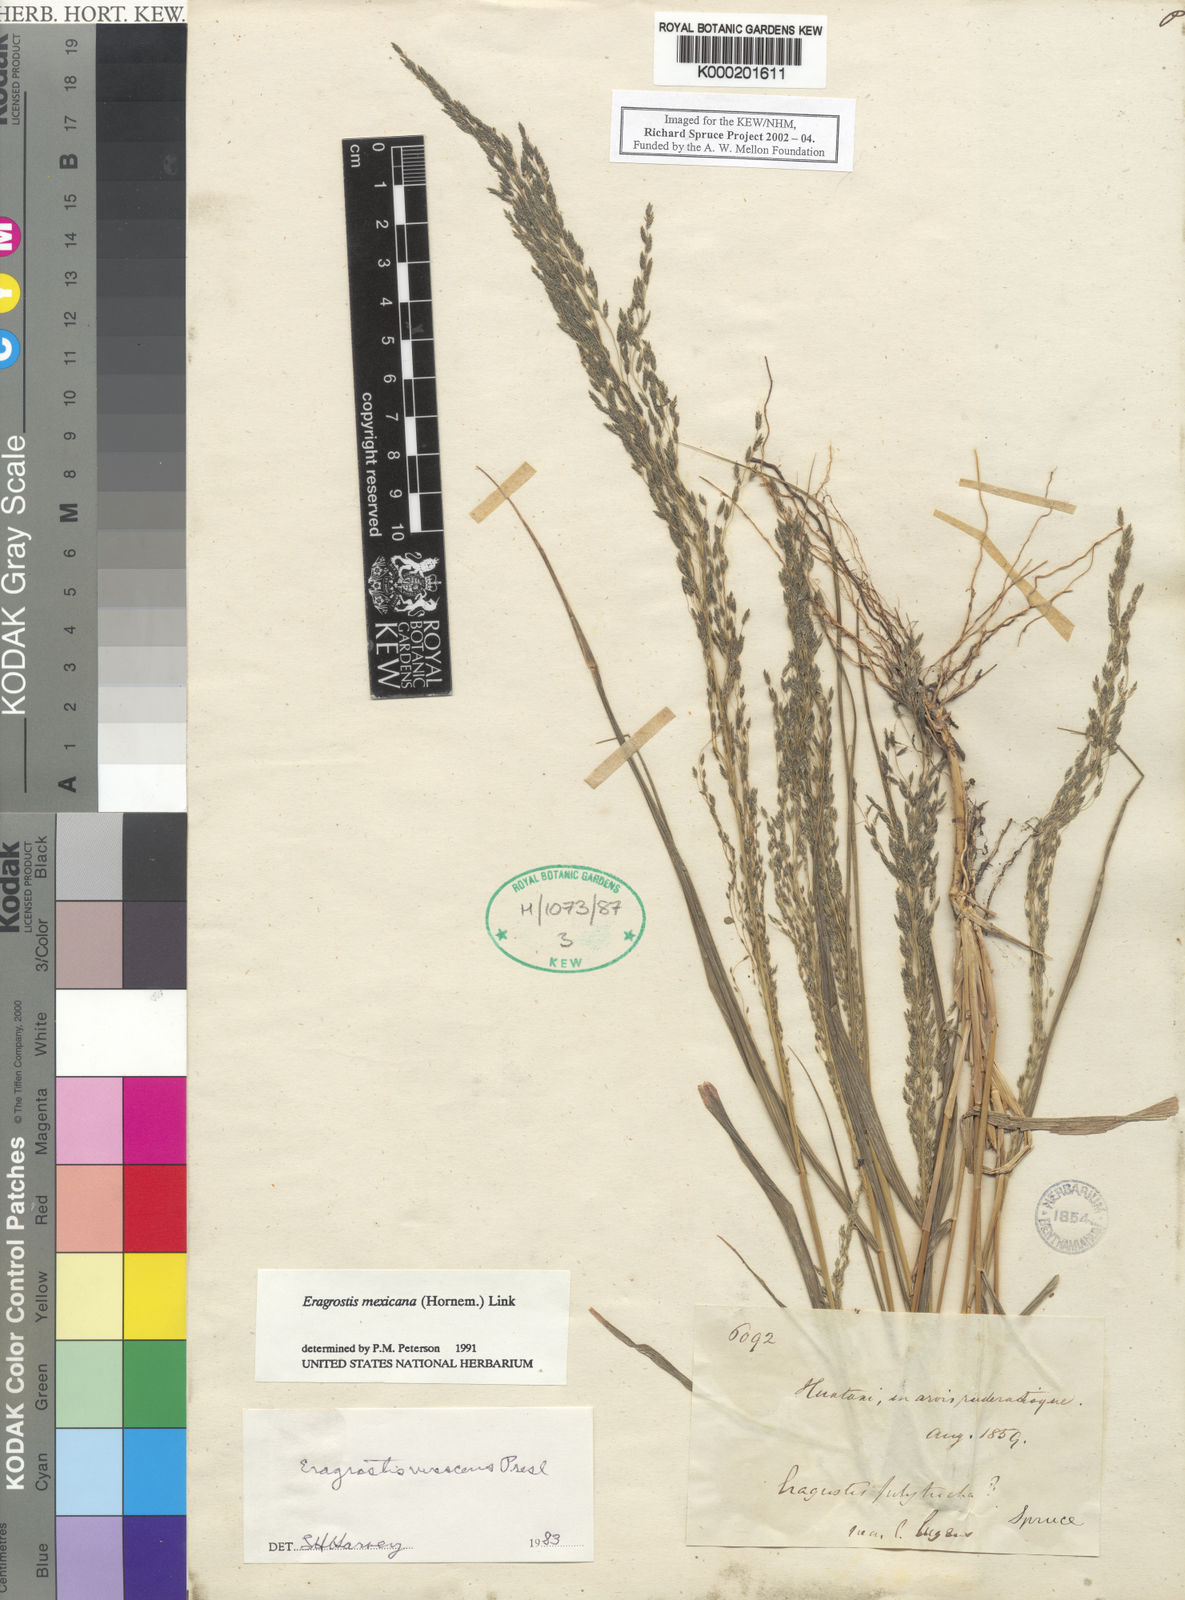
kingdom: Plantae
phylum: Tracheophyta
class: Liliopsida
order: Poales
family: Poaceae
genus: Eragrostis
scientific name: Eragrostis mexicana
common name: Mexican love grass
